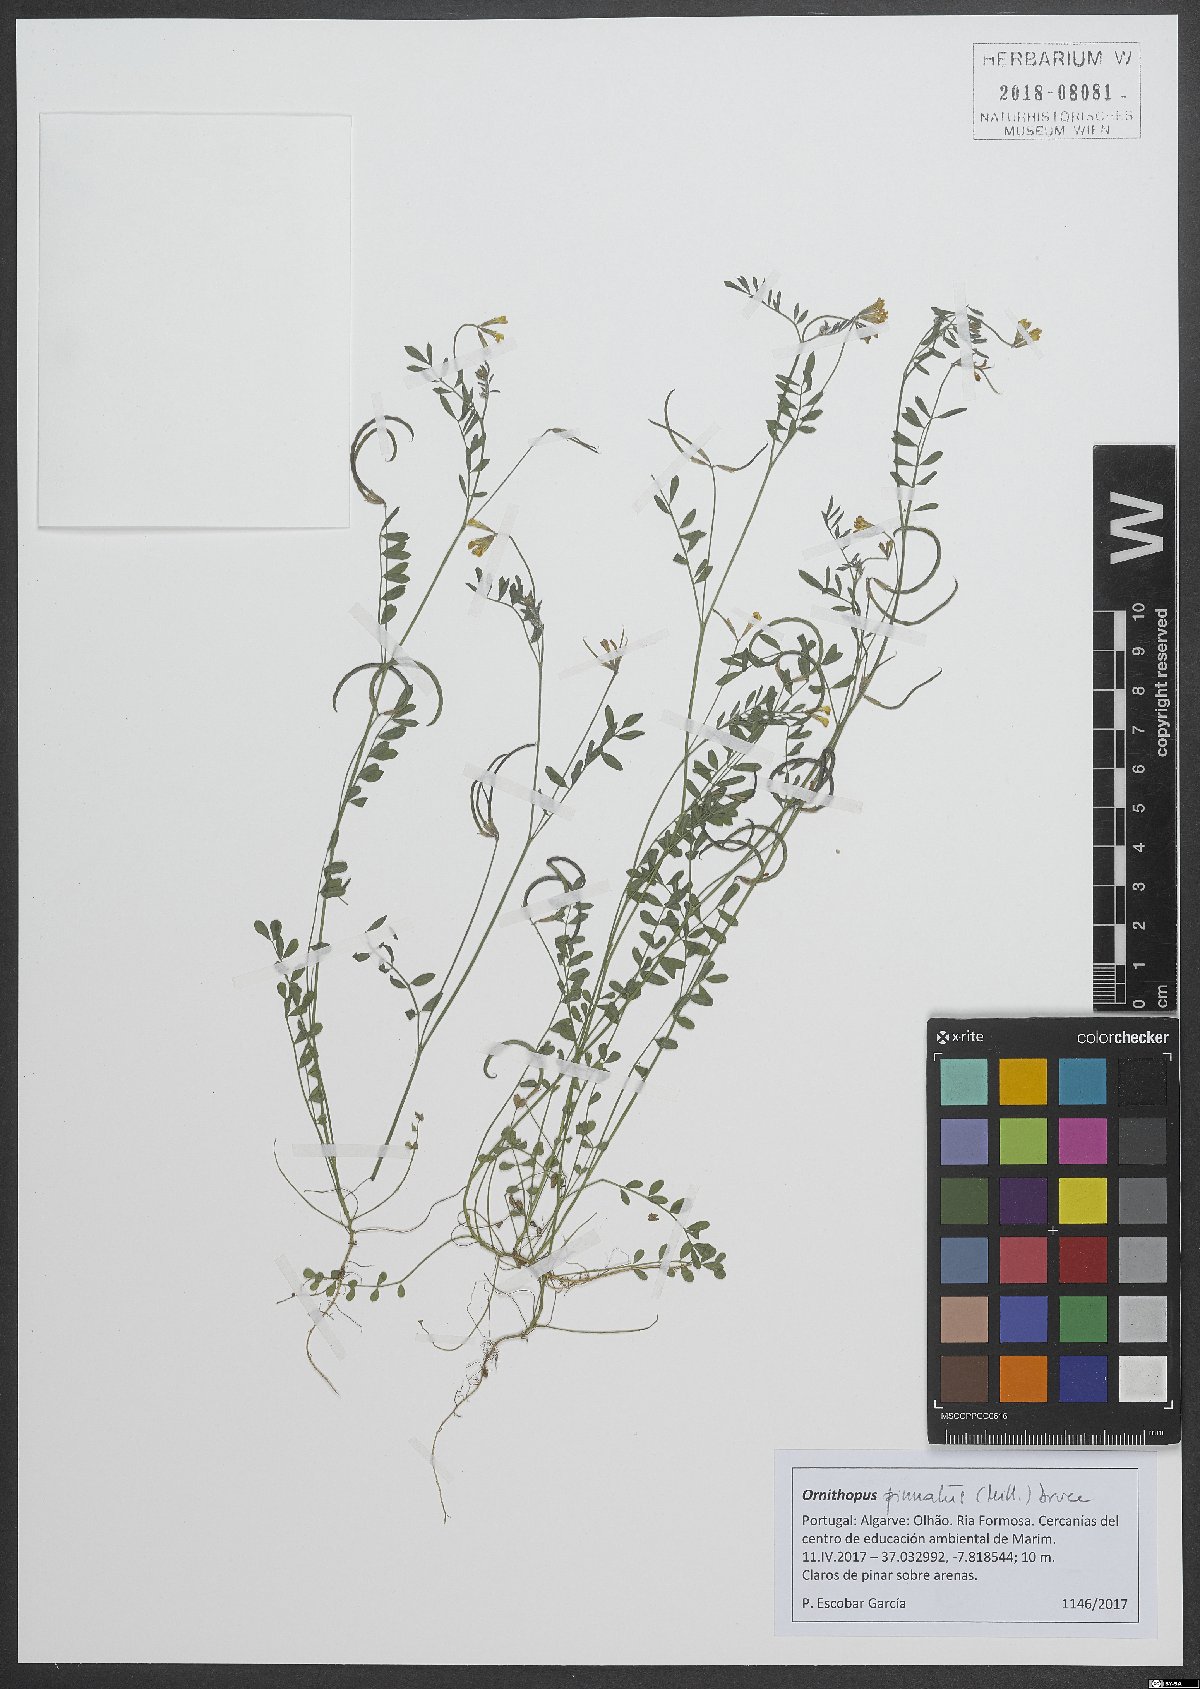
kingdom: Plantae
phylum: Tracheophyta
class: Magnoliopsida
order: Fabales
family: Fabaceae
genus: Ornithopus
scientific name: Ornithopus pinnatus
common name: Orange bird's-foot
